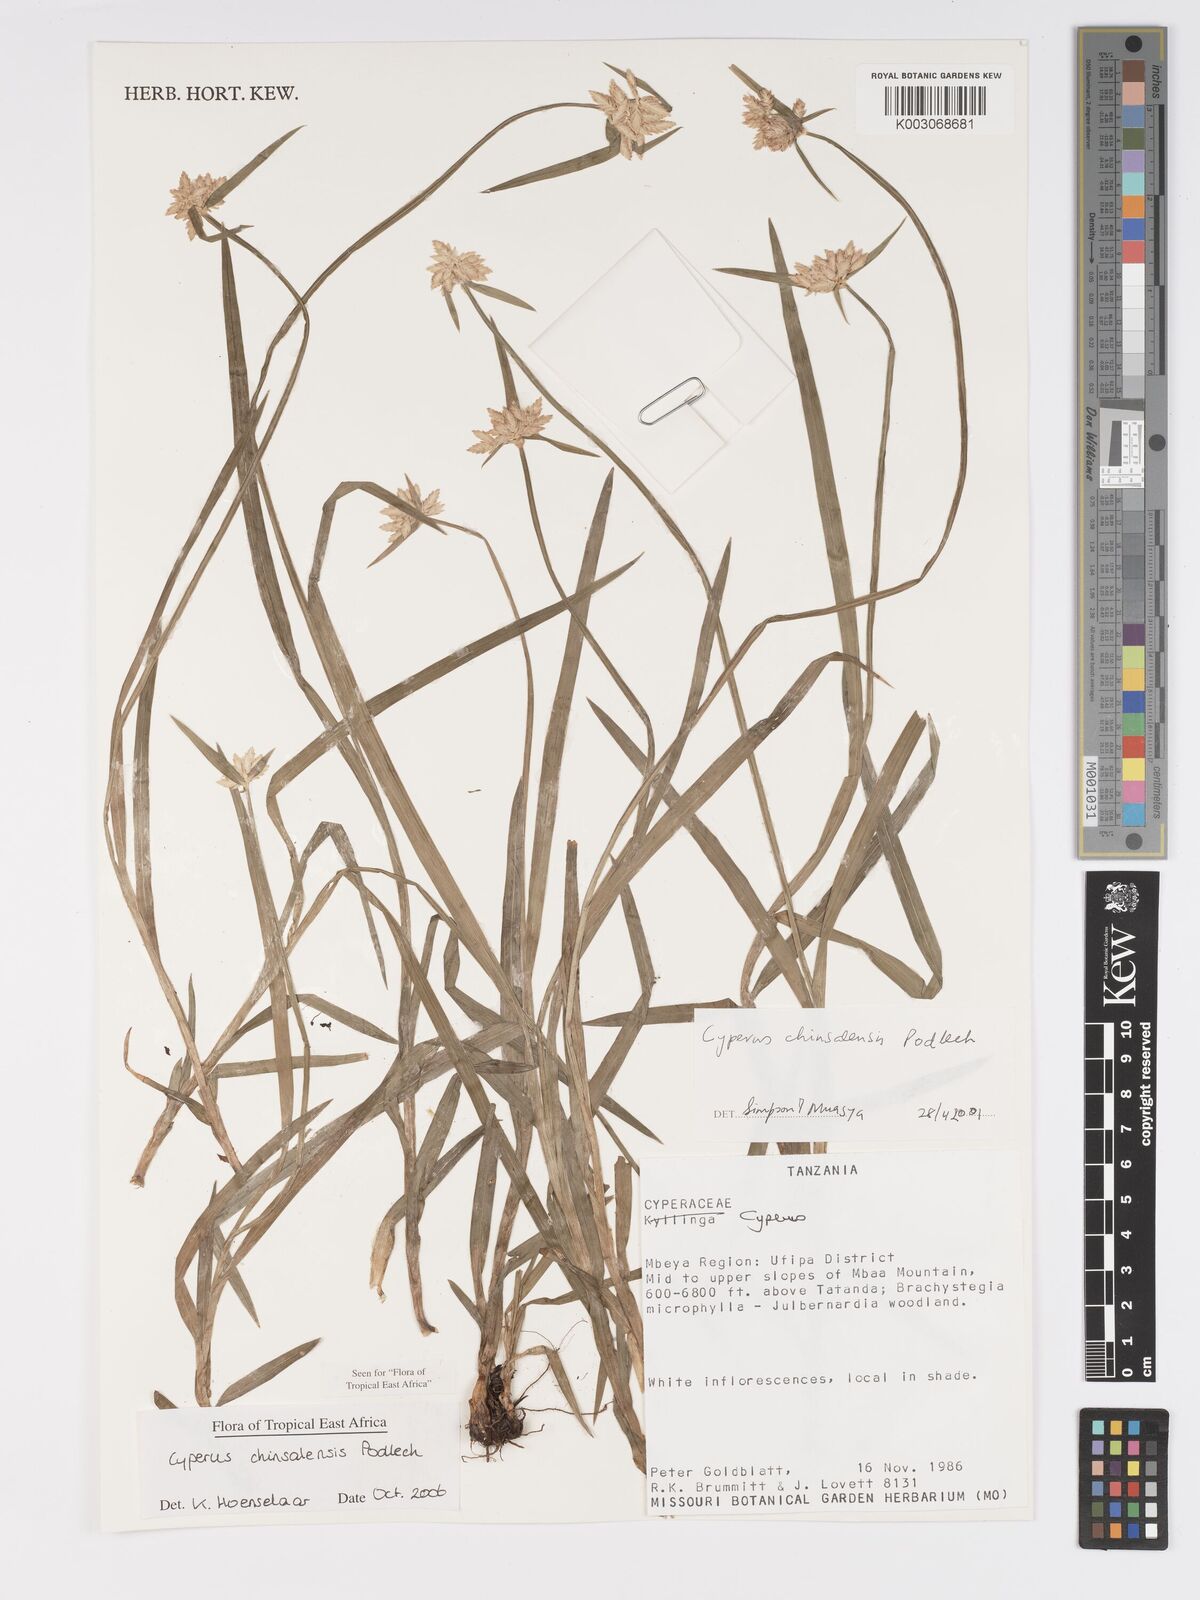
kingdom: Plantae
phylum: Tracheophyta
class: Liliopsida
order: Poales
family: Cyperaceae
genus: Cyperus
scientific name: Cyperus chinsalensis
